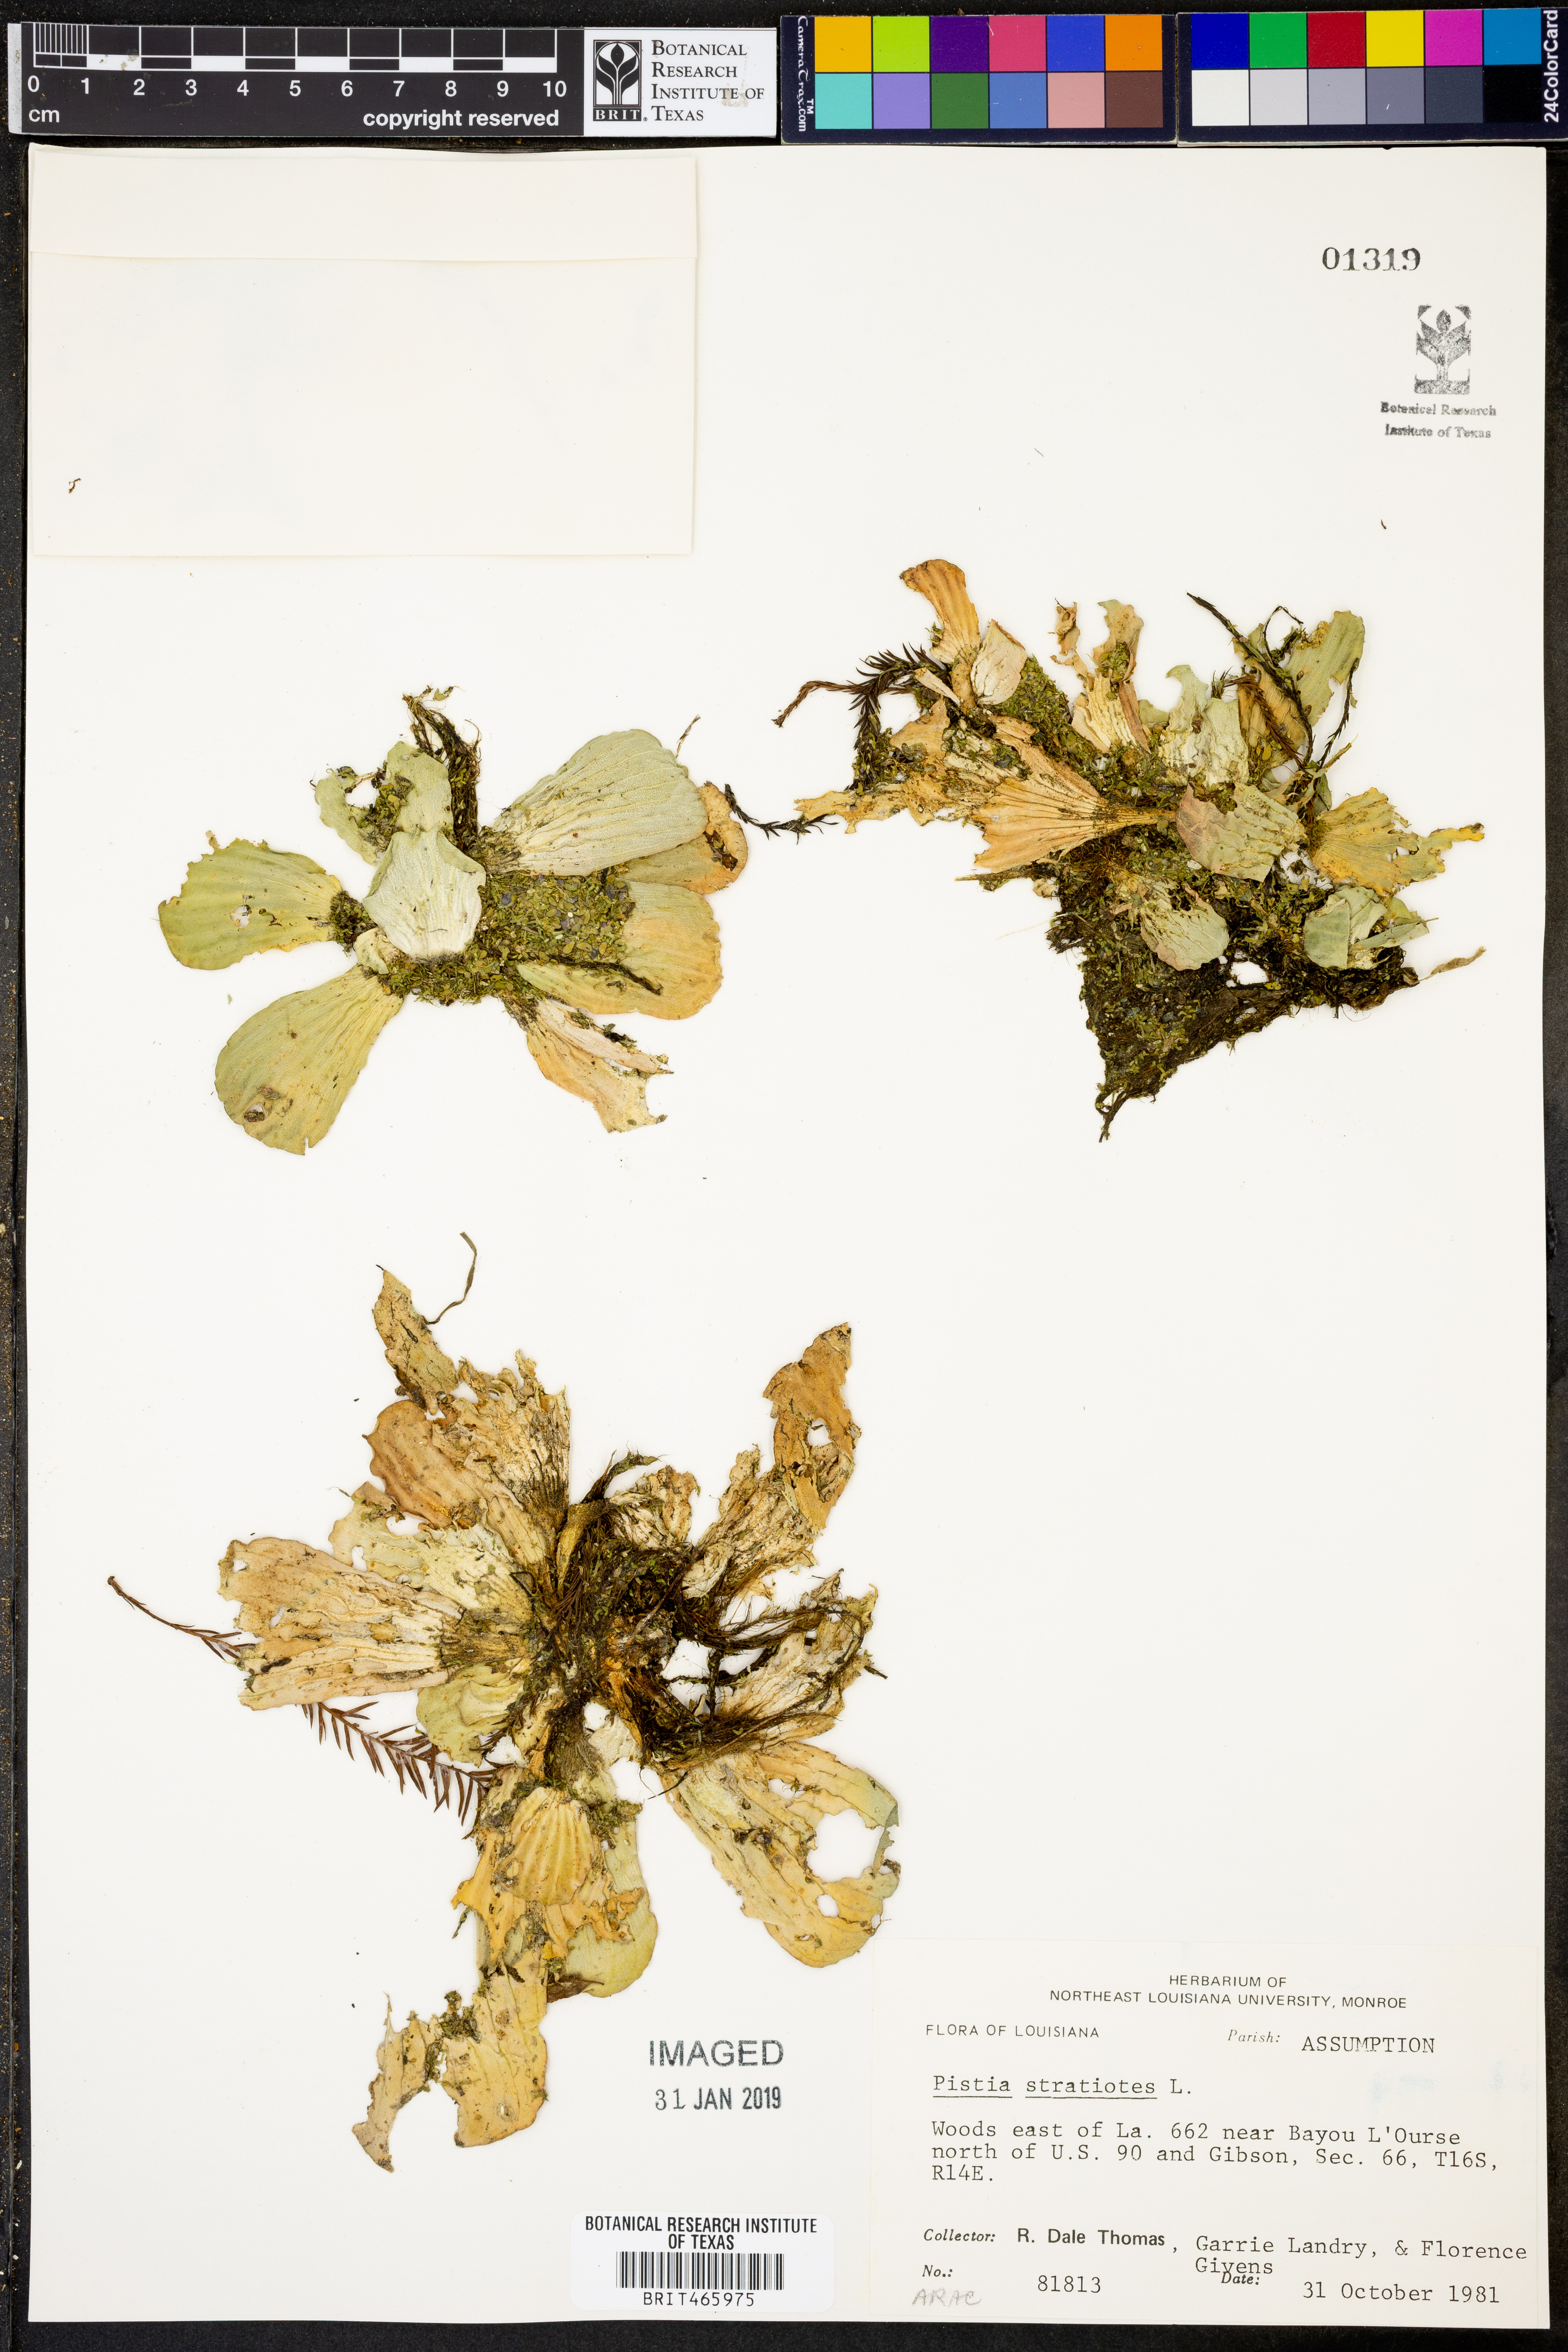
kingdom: Plantae
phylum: Tracheophyta
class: Liliopsida
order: Alismatales
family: Araceae
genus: Pistia
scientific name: Pistia stratiotes
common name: Water lettuce
